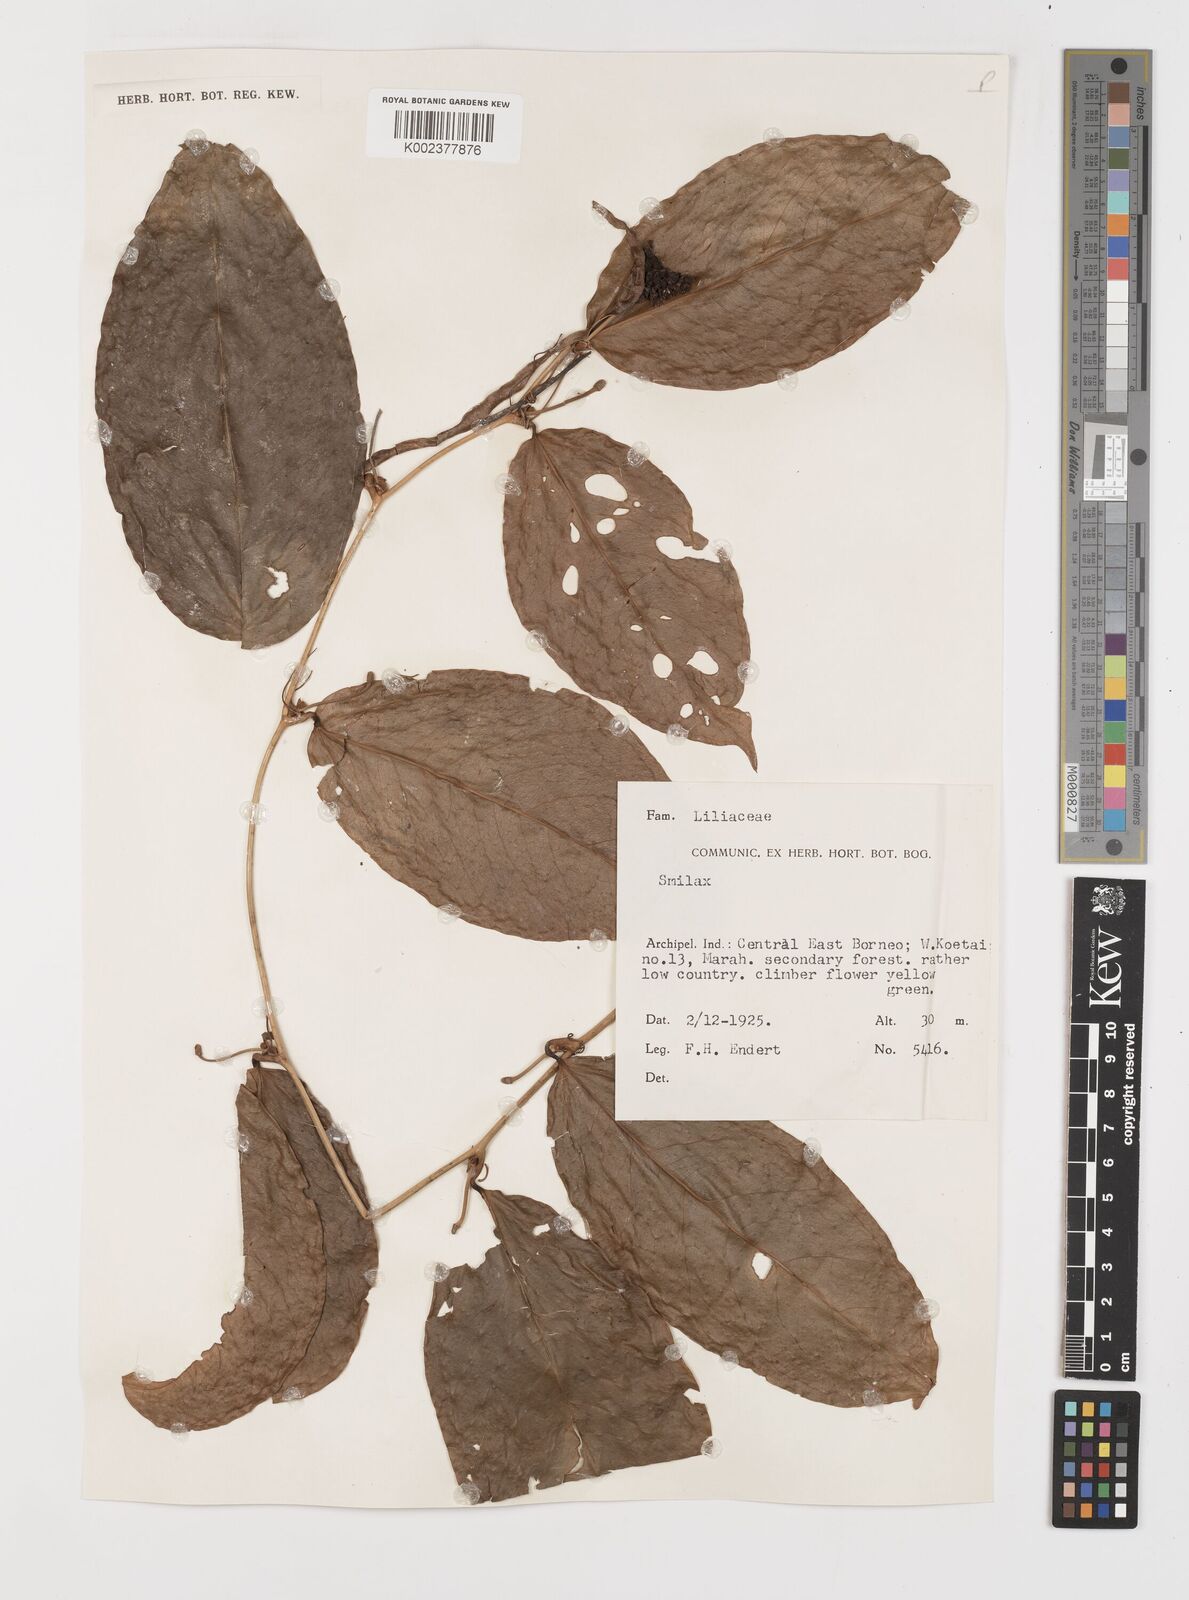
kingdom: Plantae
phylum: Tracheophyta
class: Liliopsida
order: Liliales
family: Smilacaceae
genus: Smilax
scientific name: Smilax
